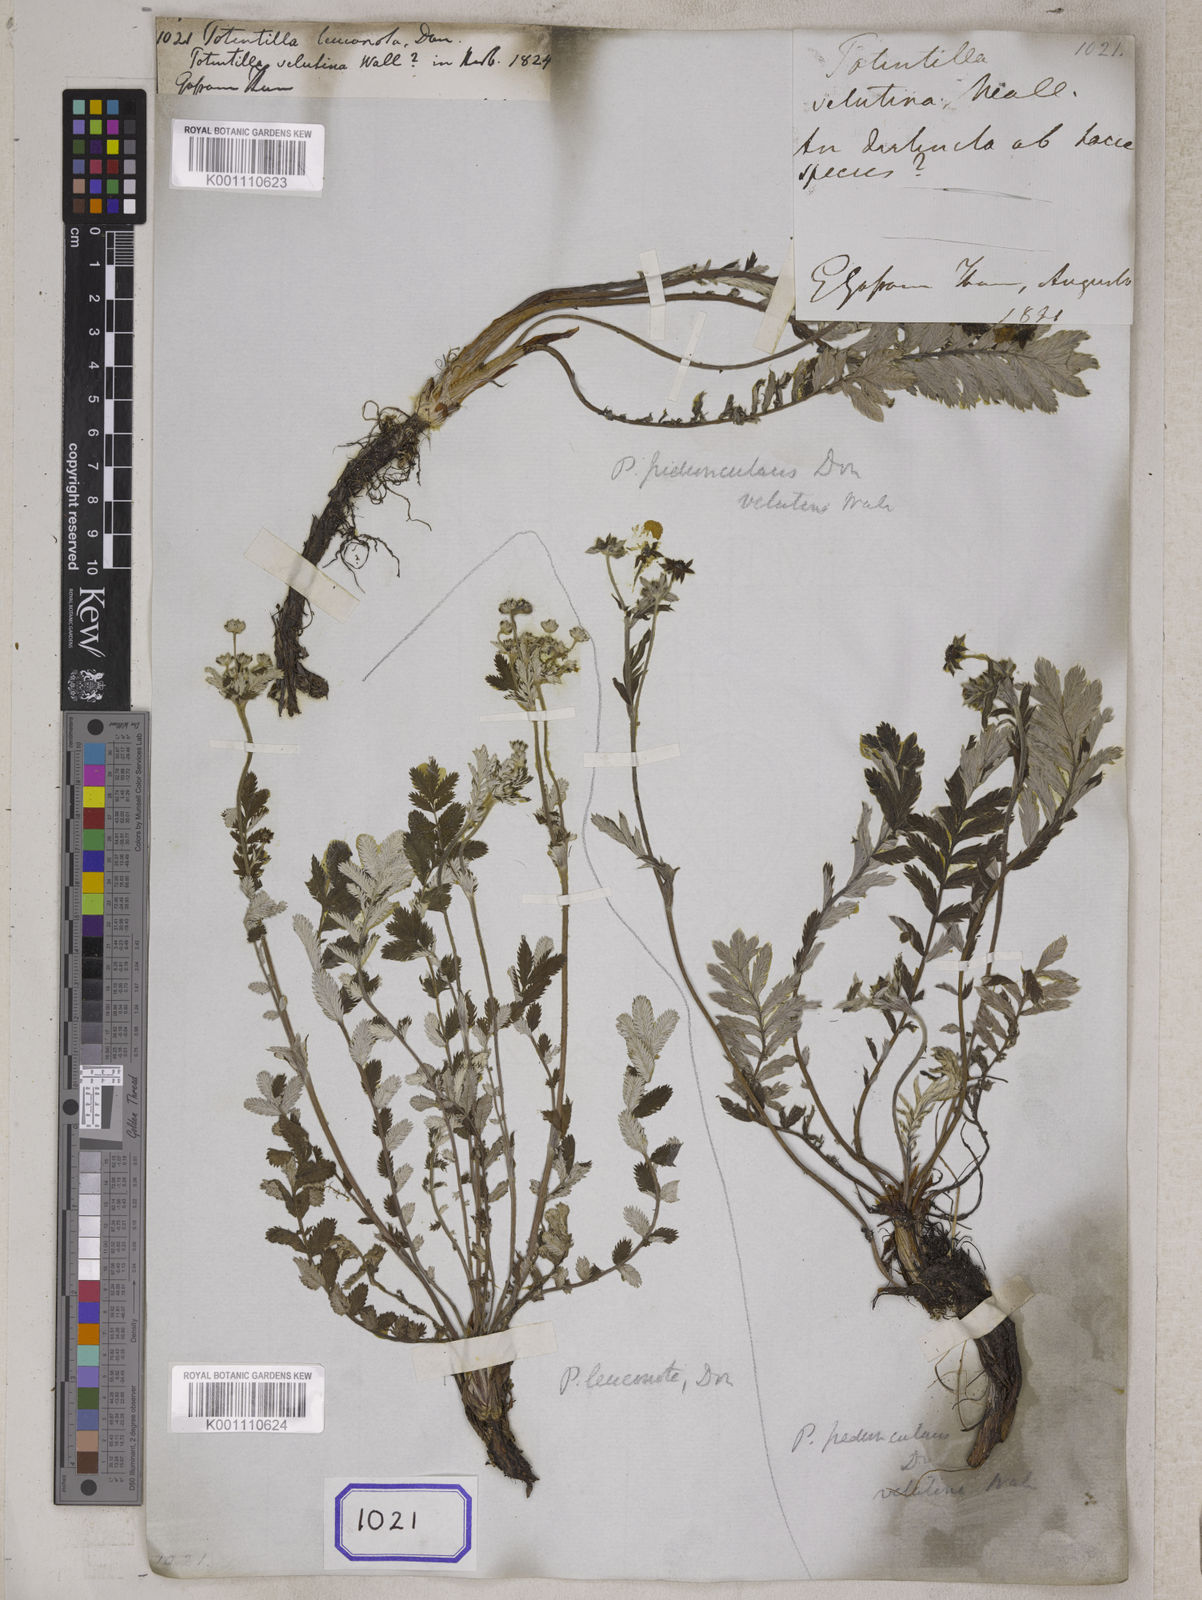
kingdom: Plantae
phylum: Tracheophyta
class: Magnoliopsida
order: Rosales
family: Rosaceae
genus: Argentina
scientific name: Argentina leuconota
